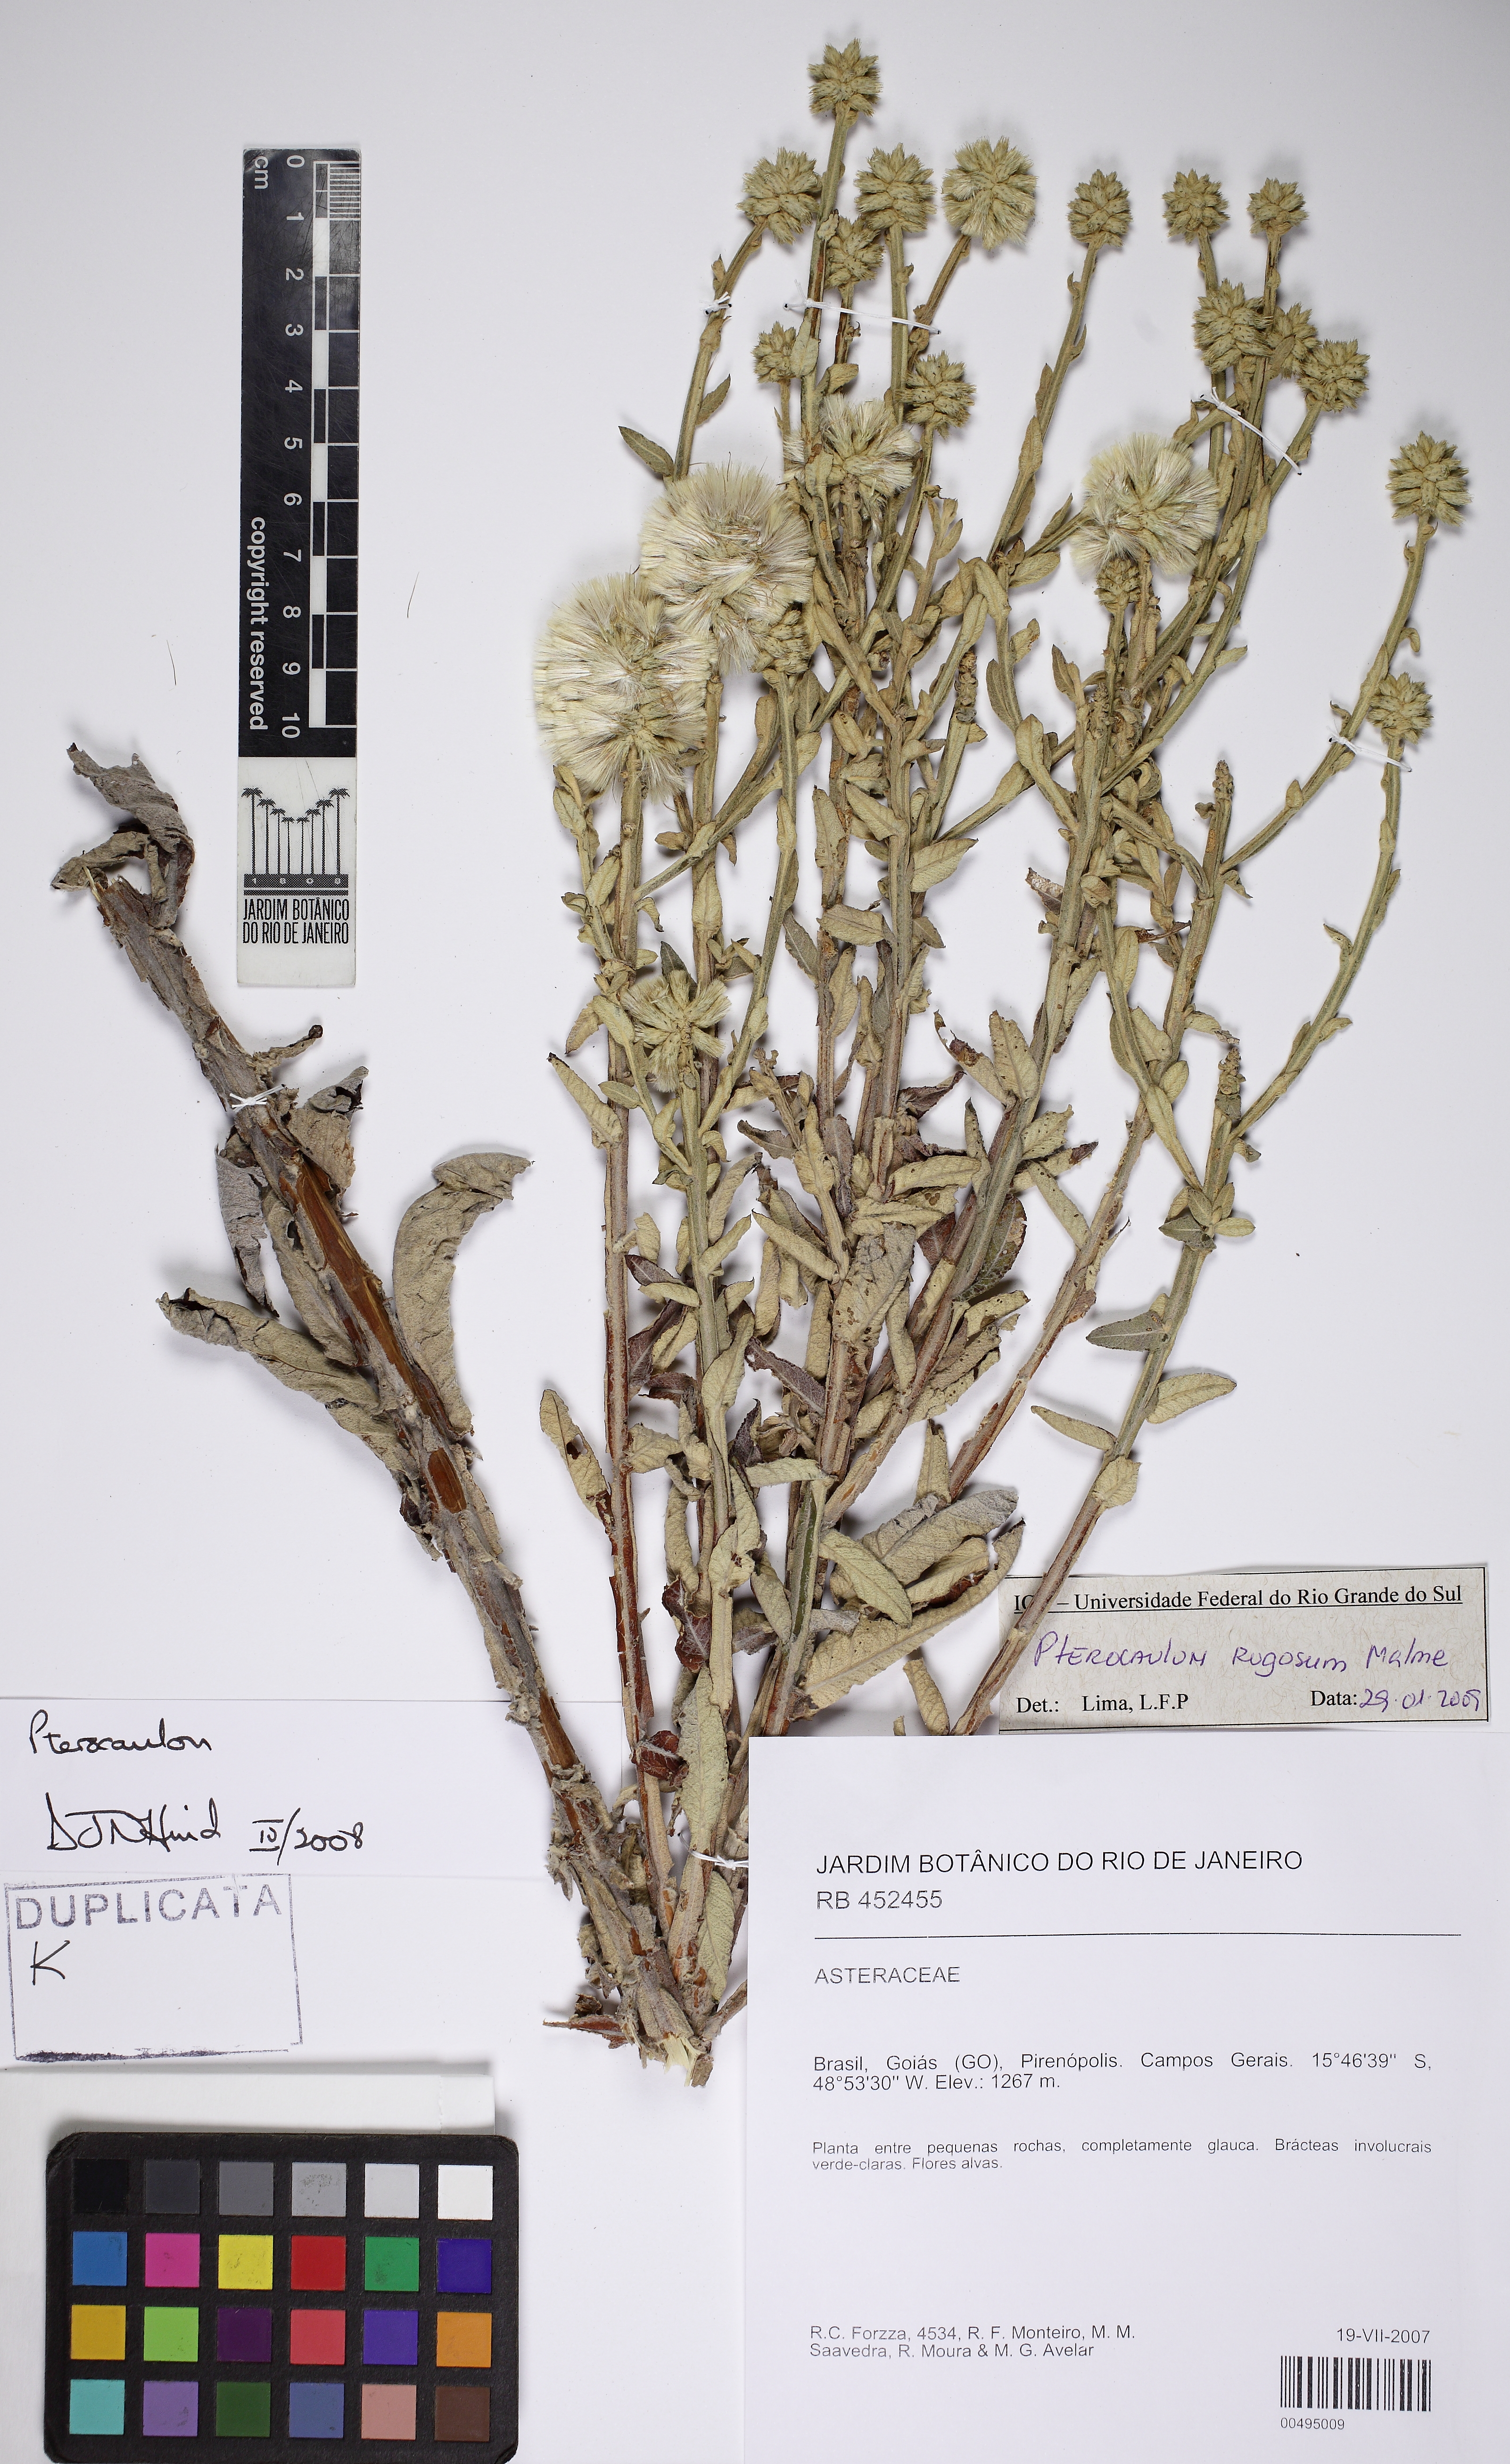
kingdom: Plantae
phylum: Tracheophyta
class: Magnoliopsida
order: Asterales
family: Asteraceae
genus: Pterocaulon
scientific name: Pterocaulon rugosum
